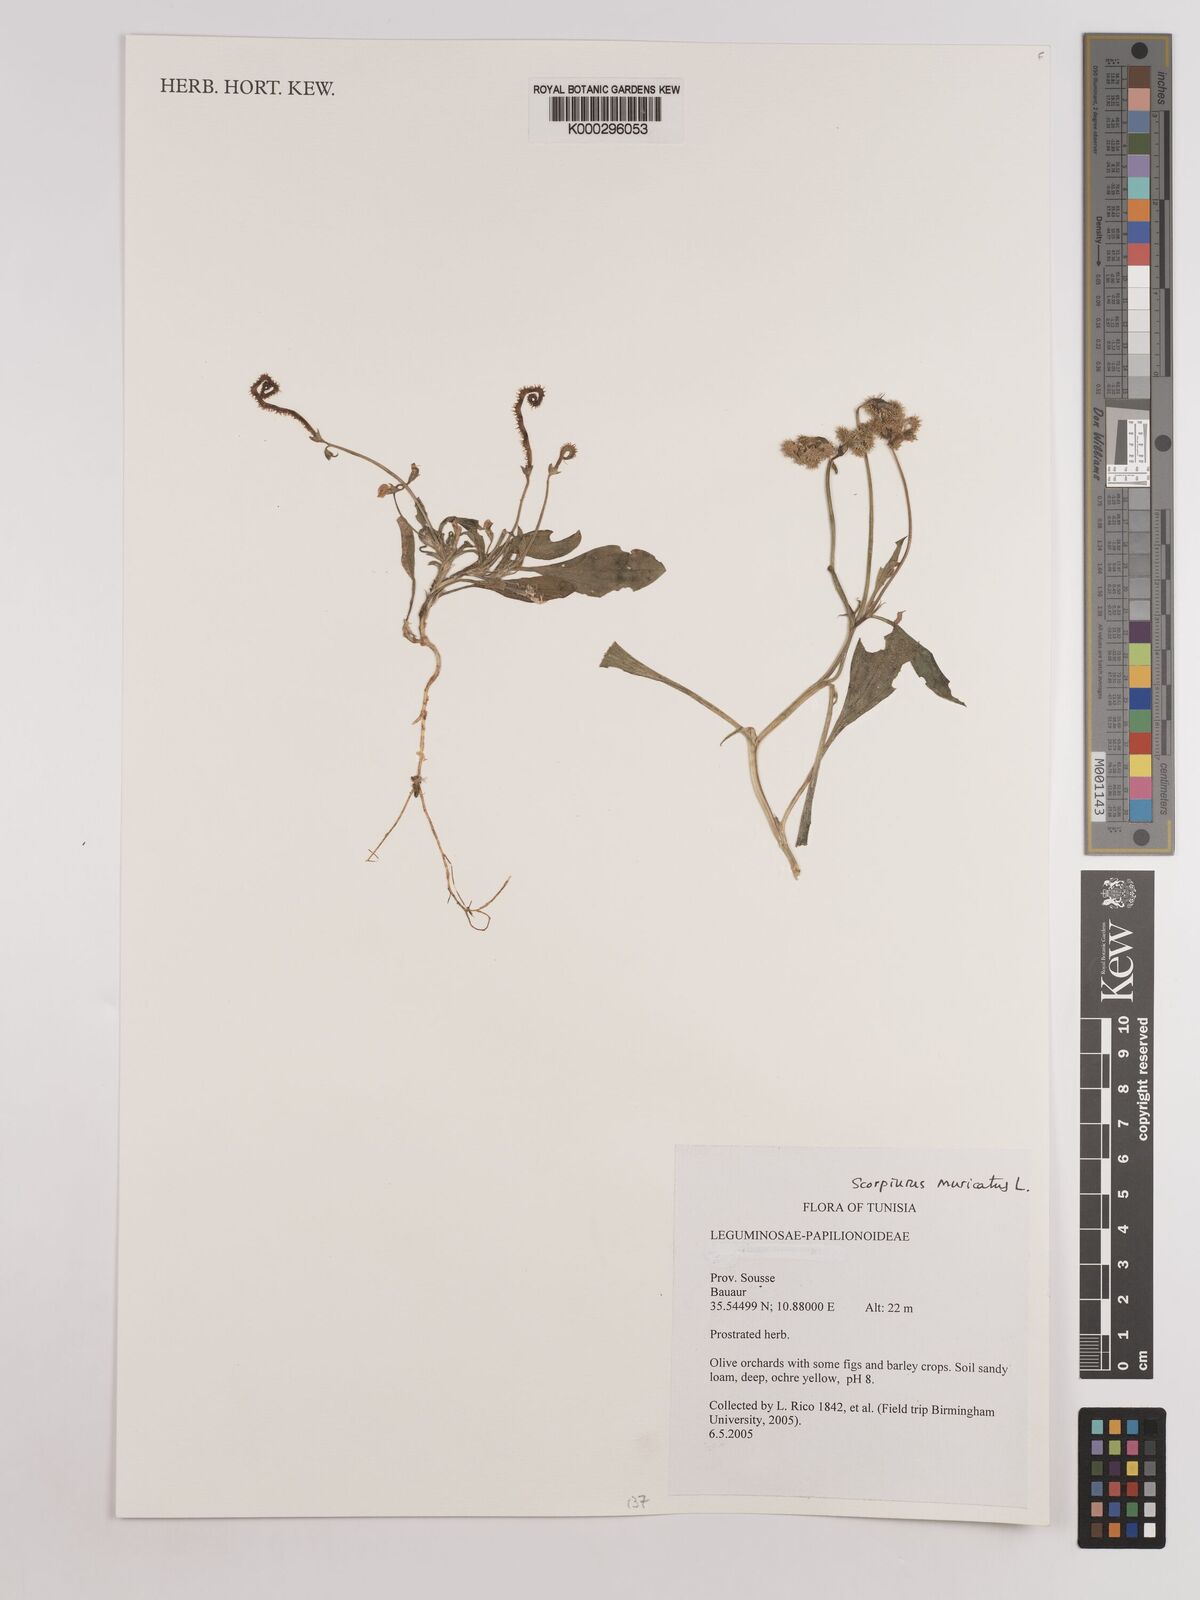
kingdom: Plantae
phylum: Tracheophyta
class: Magnoliopsida
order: Fabales
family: Fabaceae
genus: Scorpiurus
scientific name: Scorpiurus muricatus
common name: Caterpillar-plant
